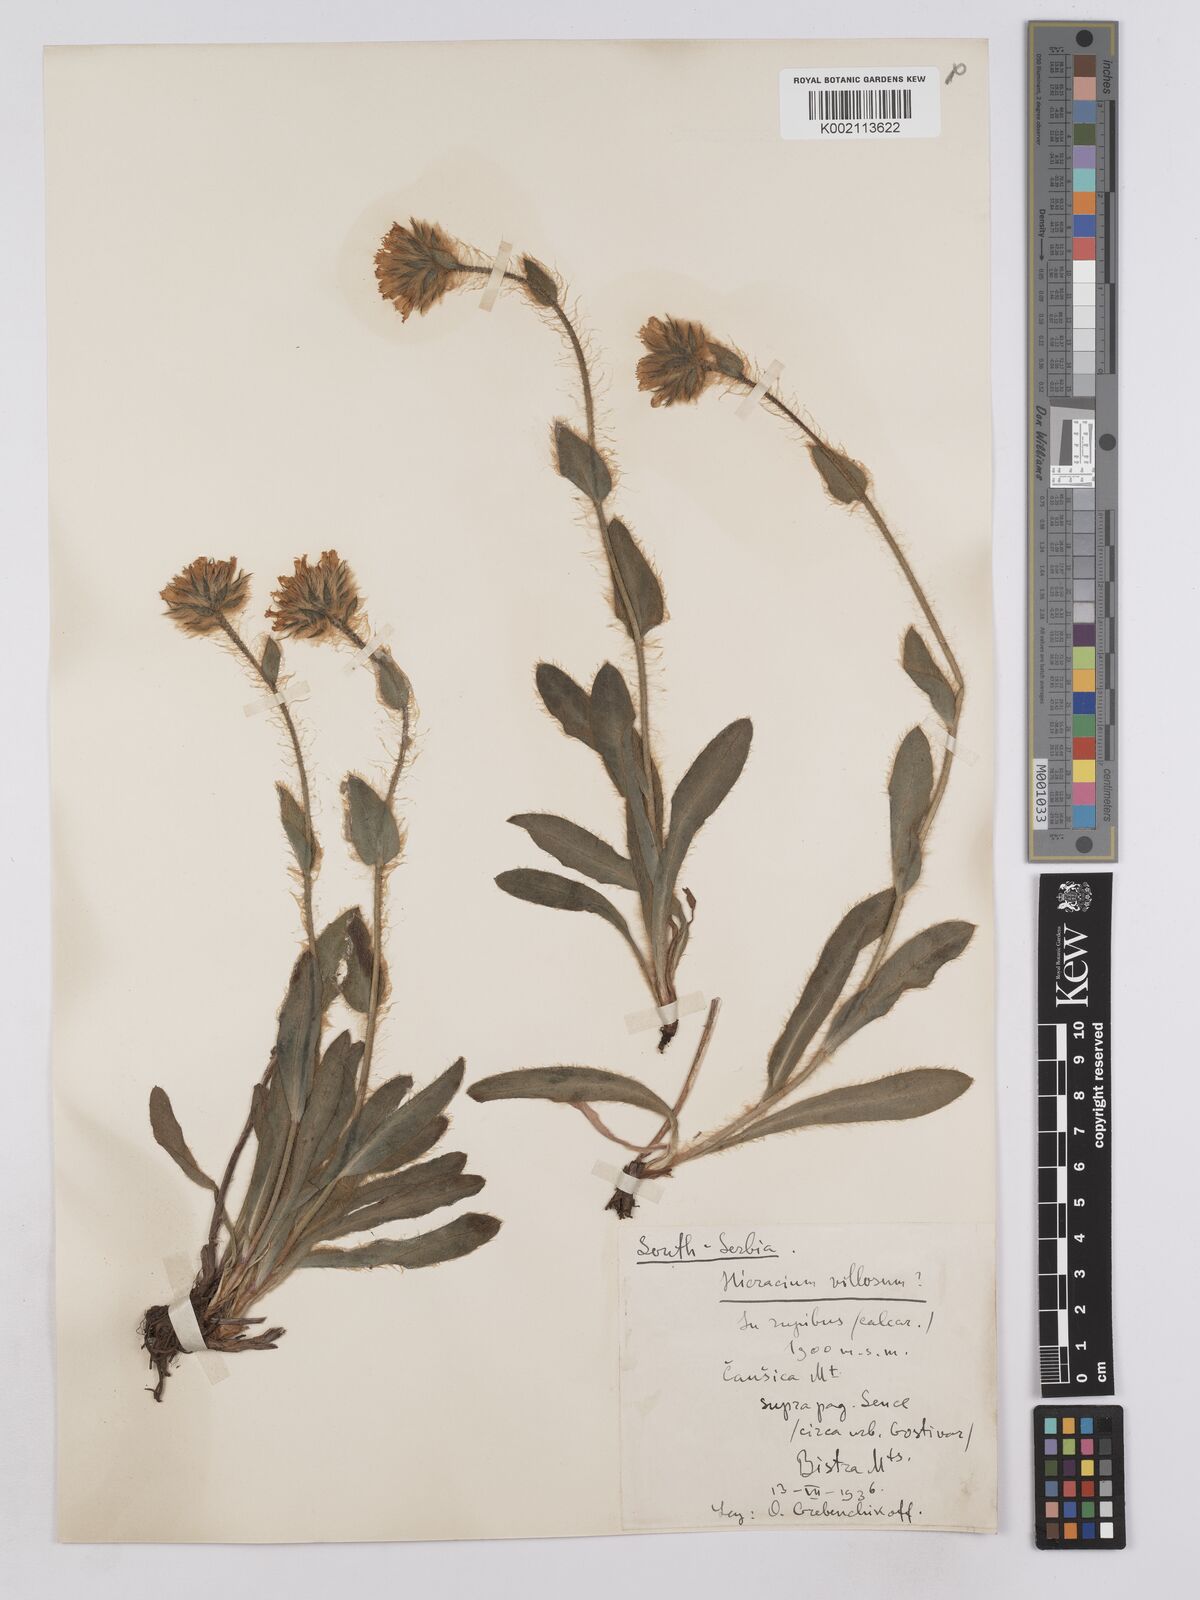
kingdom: Plantae
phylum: Tracheophyta
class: Magnoliopsida
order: Asterales
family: Asteraceae
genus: Hieracium
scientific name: Hieracium villosum
